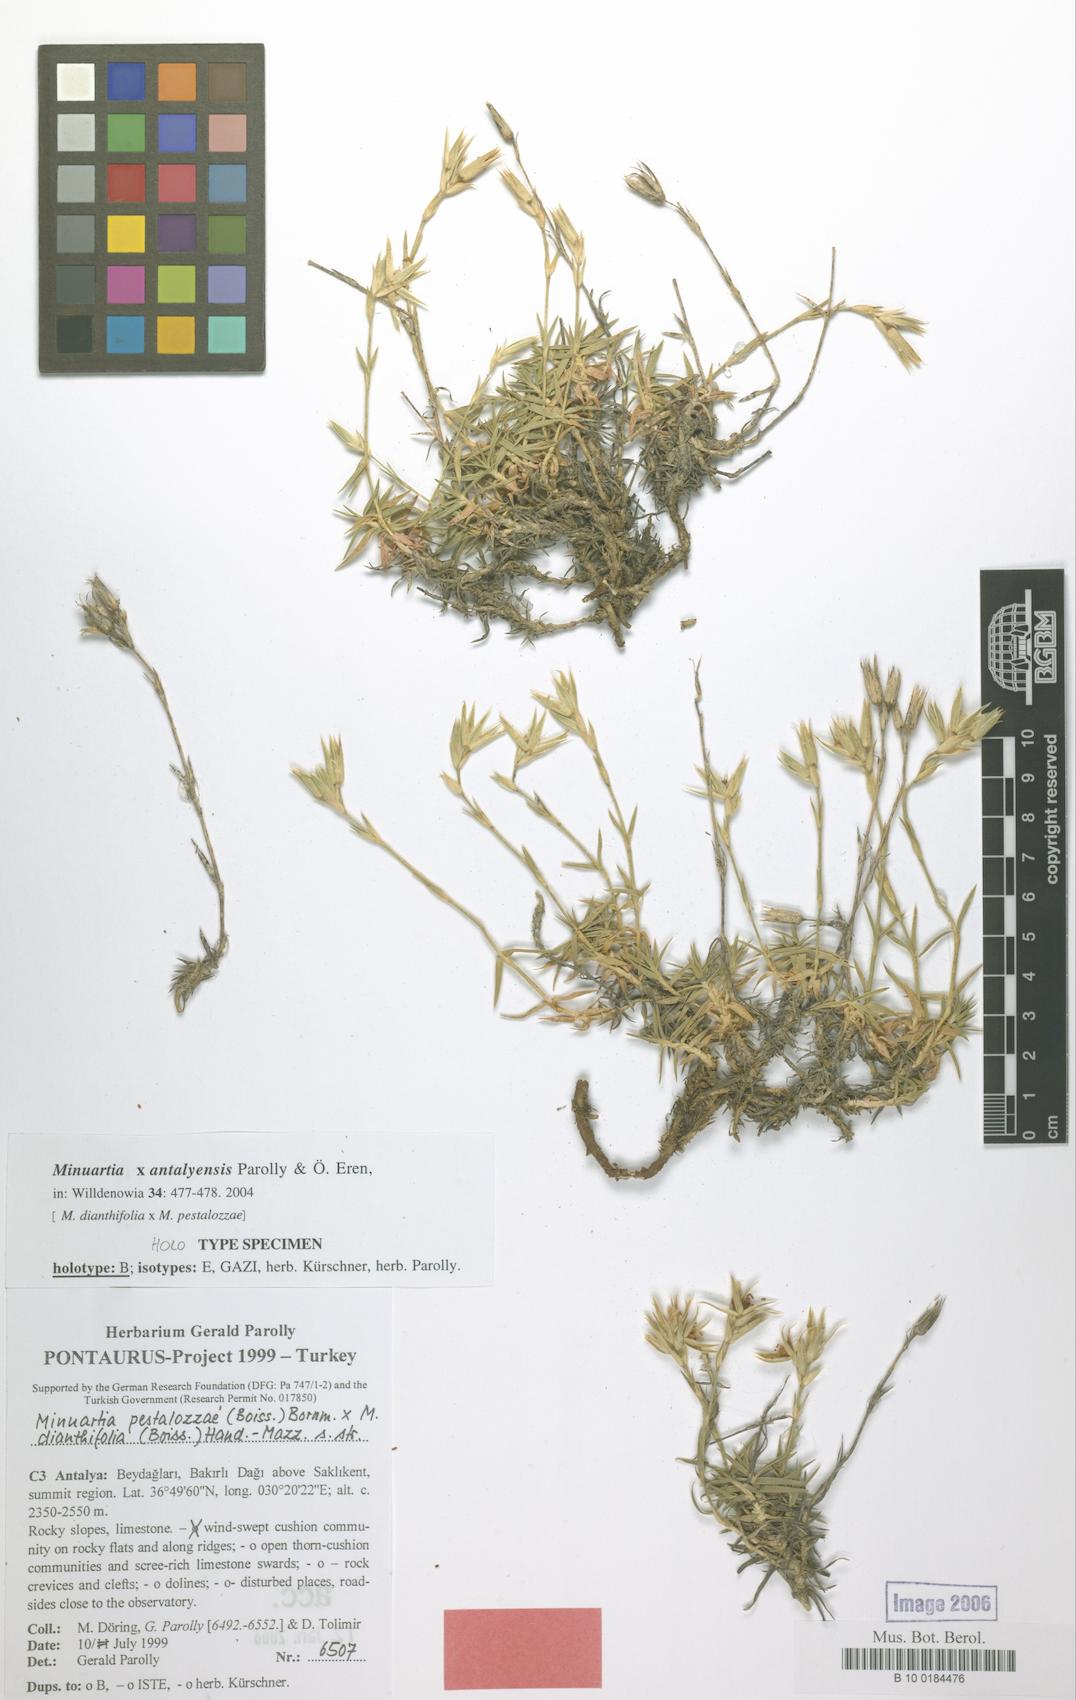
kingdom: Plantae
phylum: Tracheophyta
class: Magnoliopsida
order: Caryophyllales
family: Caryophyllaceae
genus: Minuartiella
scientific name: Minuartiella antalyensis
